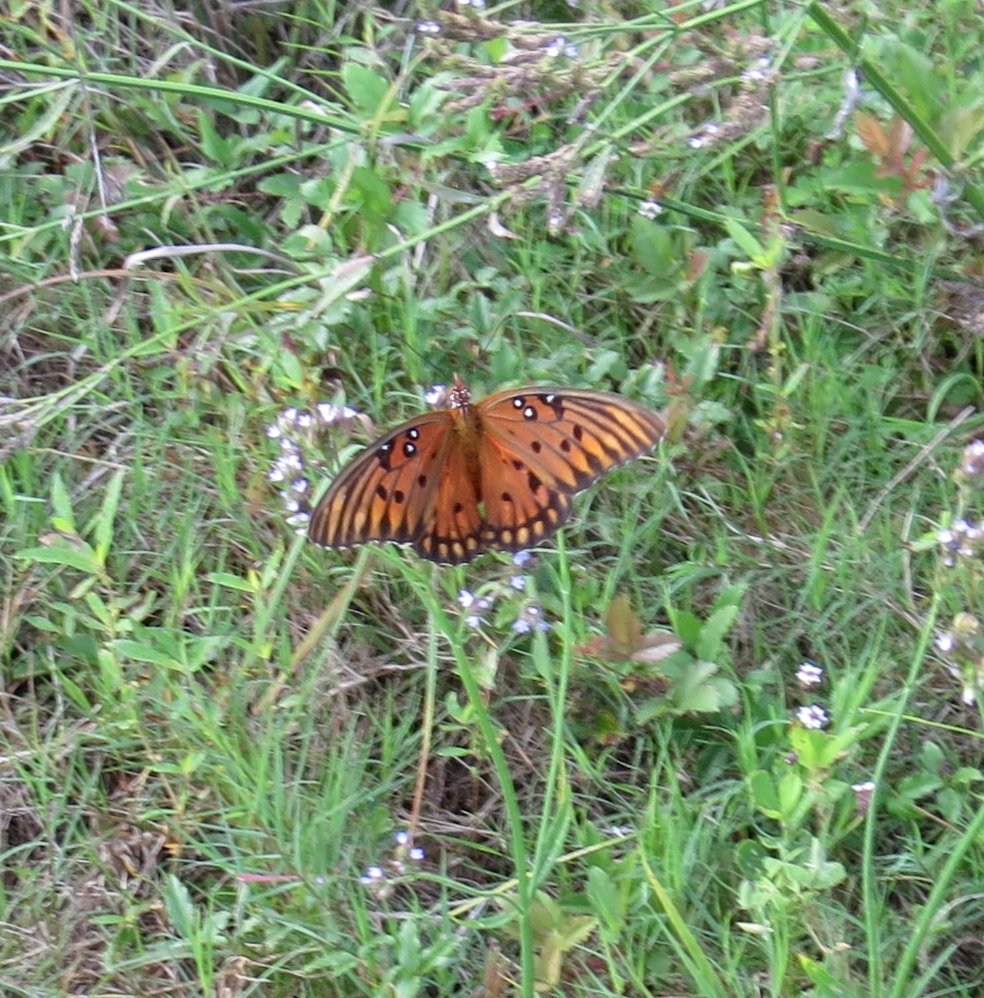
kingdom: Animalia
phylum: Arthropoda
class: Insecta
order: Lepidoptera
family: Nymphalidae
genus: Dione
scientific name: Dione vanillae
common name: Gulf Fritillary
